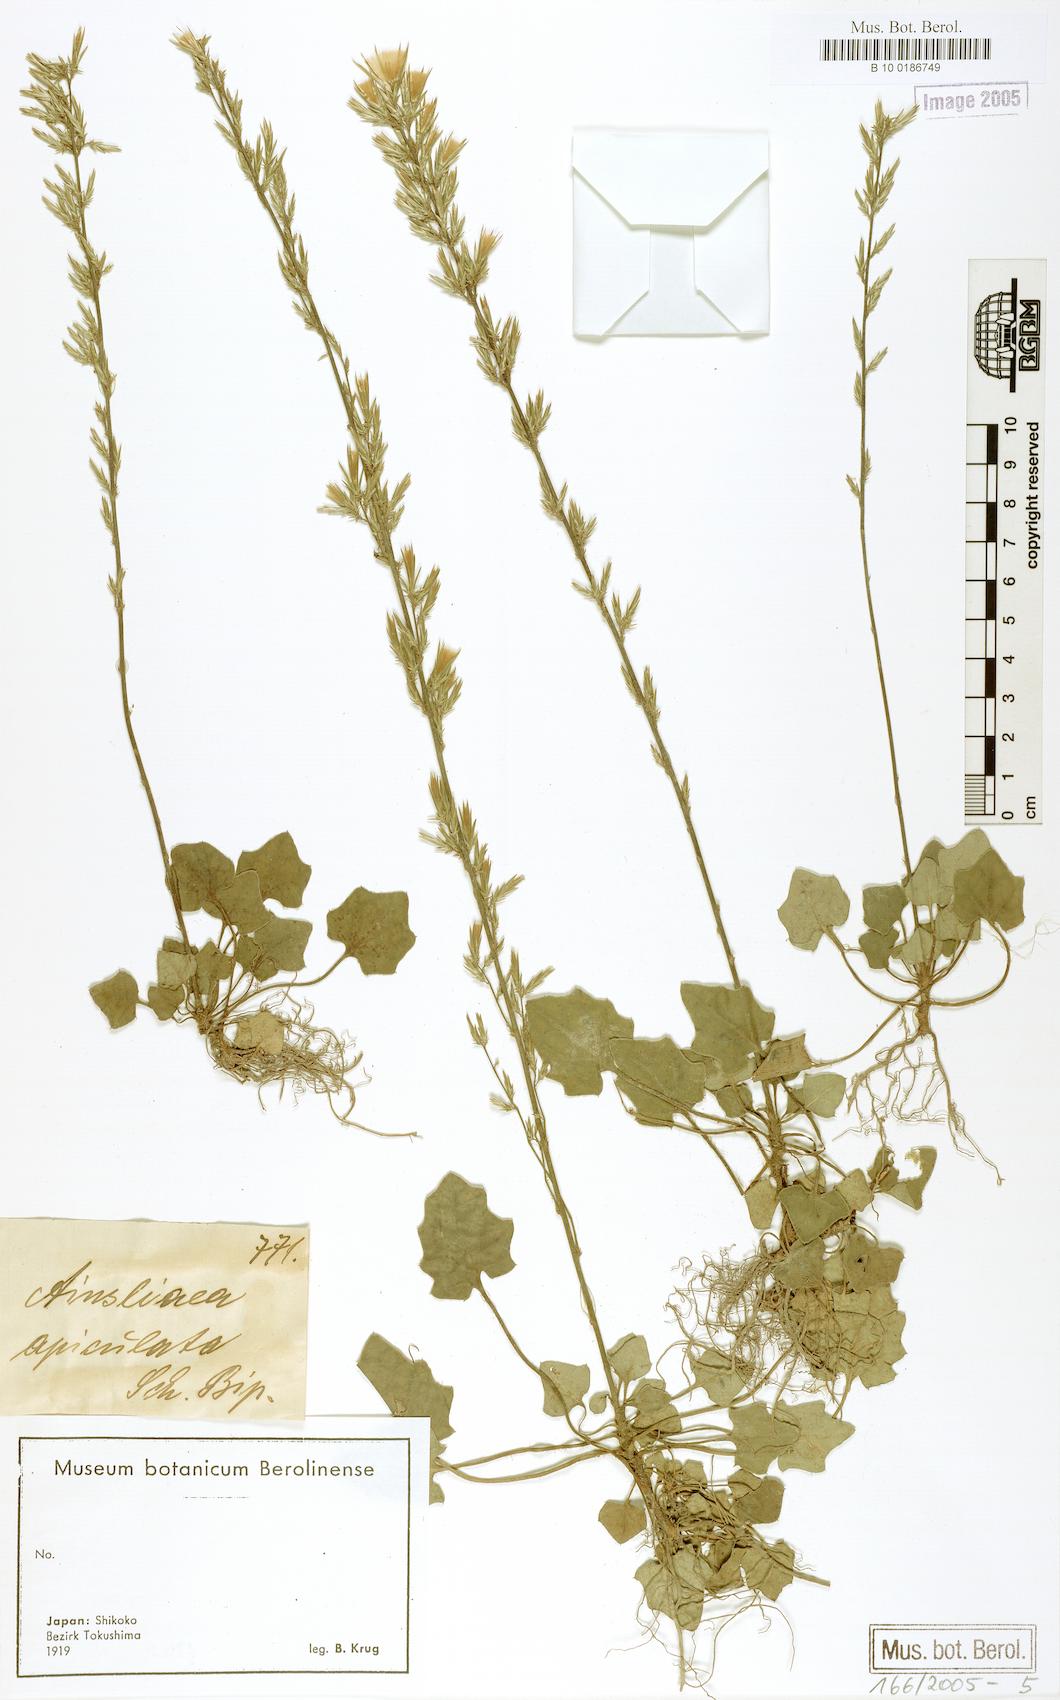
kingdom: Plantae
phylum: Tracheophyta
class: Magnoliopsida
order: Asterales
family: Asteraceae
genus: Ainsliaea
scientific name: Ainsliaea apiculata
